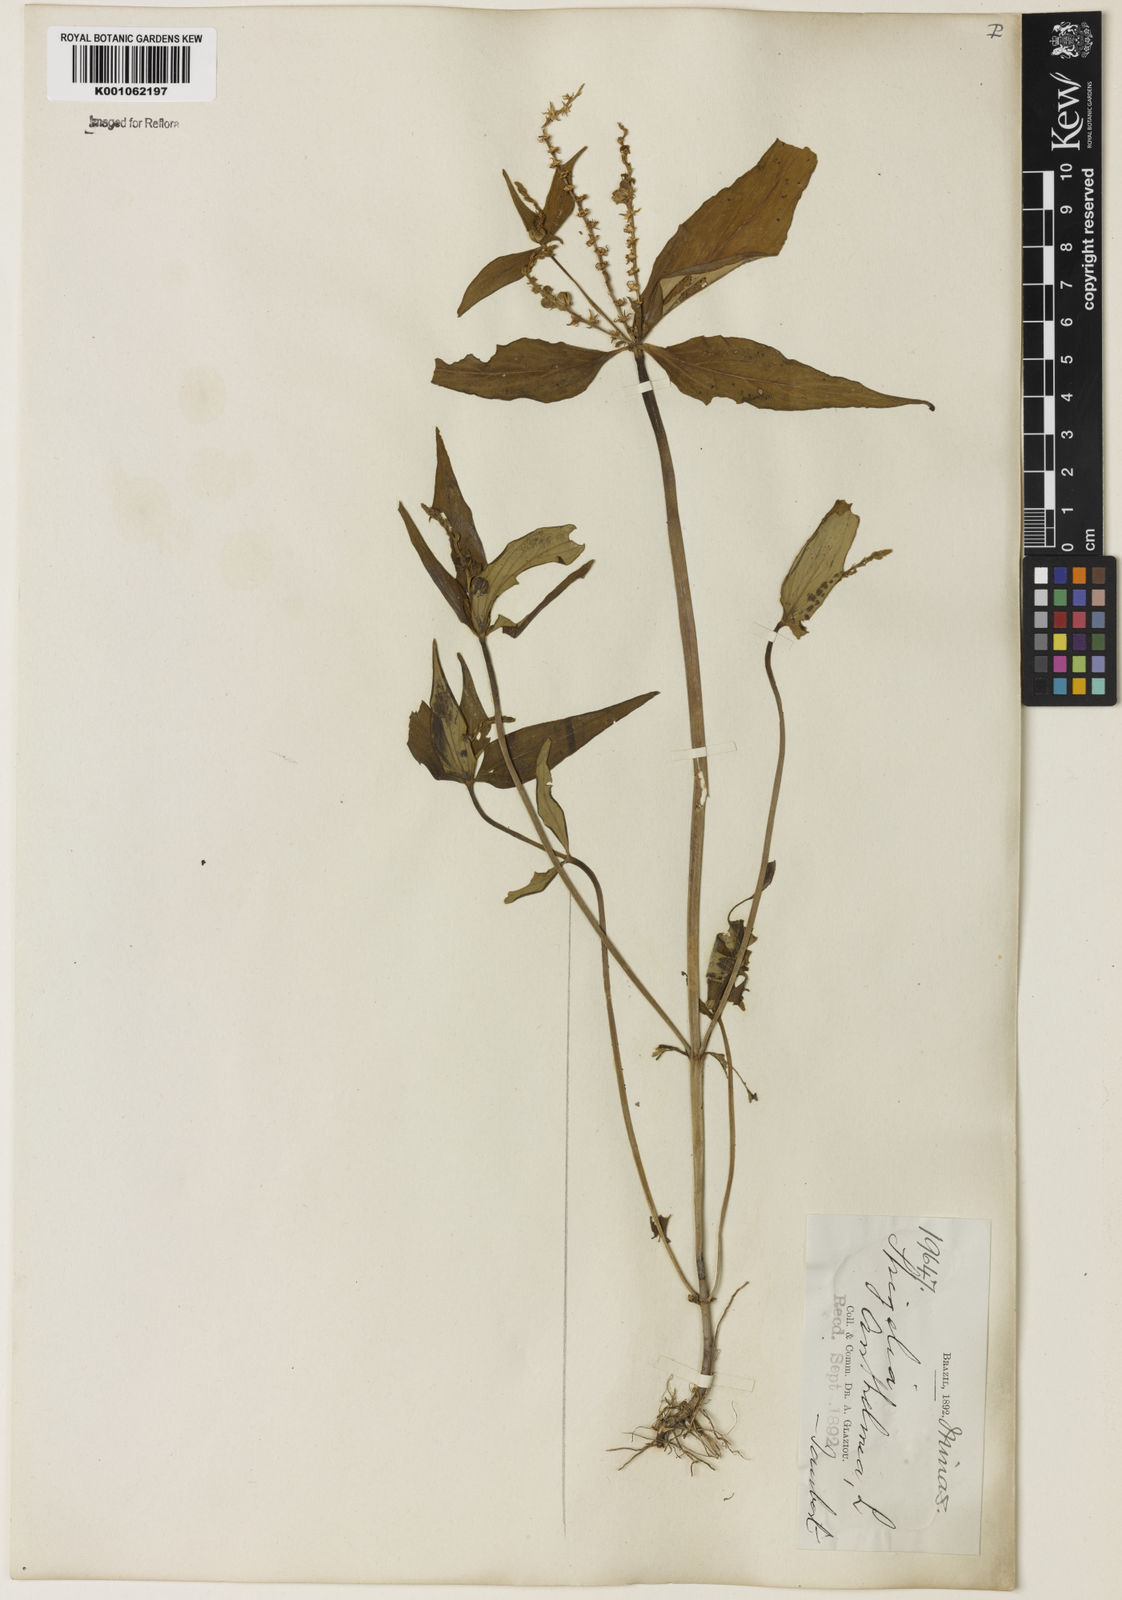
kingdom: Plantae
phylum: Tracheophyta
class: Magnoliopsida
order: Gentianales
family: Loganiaceae
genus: Spigelia
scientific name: Spigelia anthelmia
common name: West indian-pink
